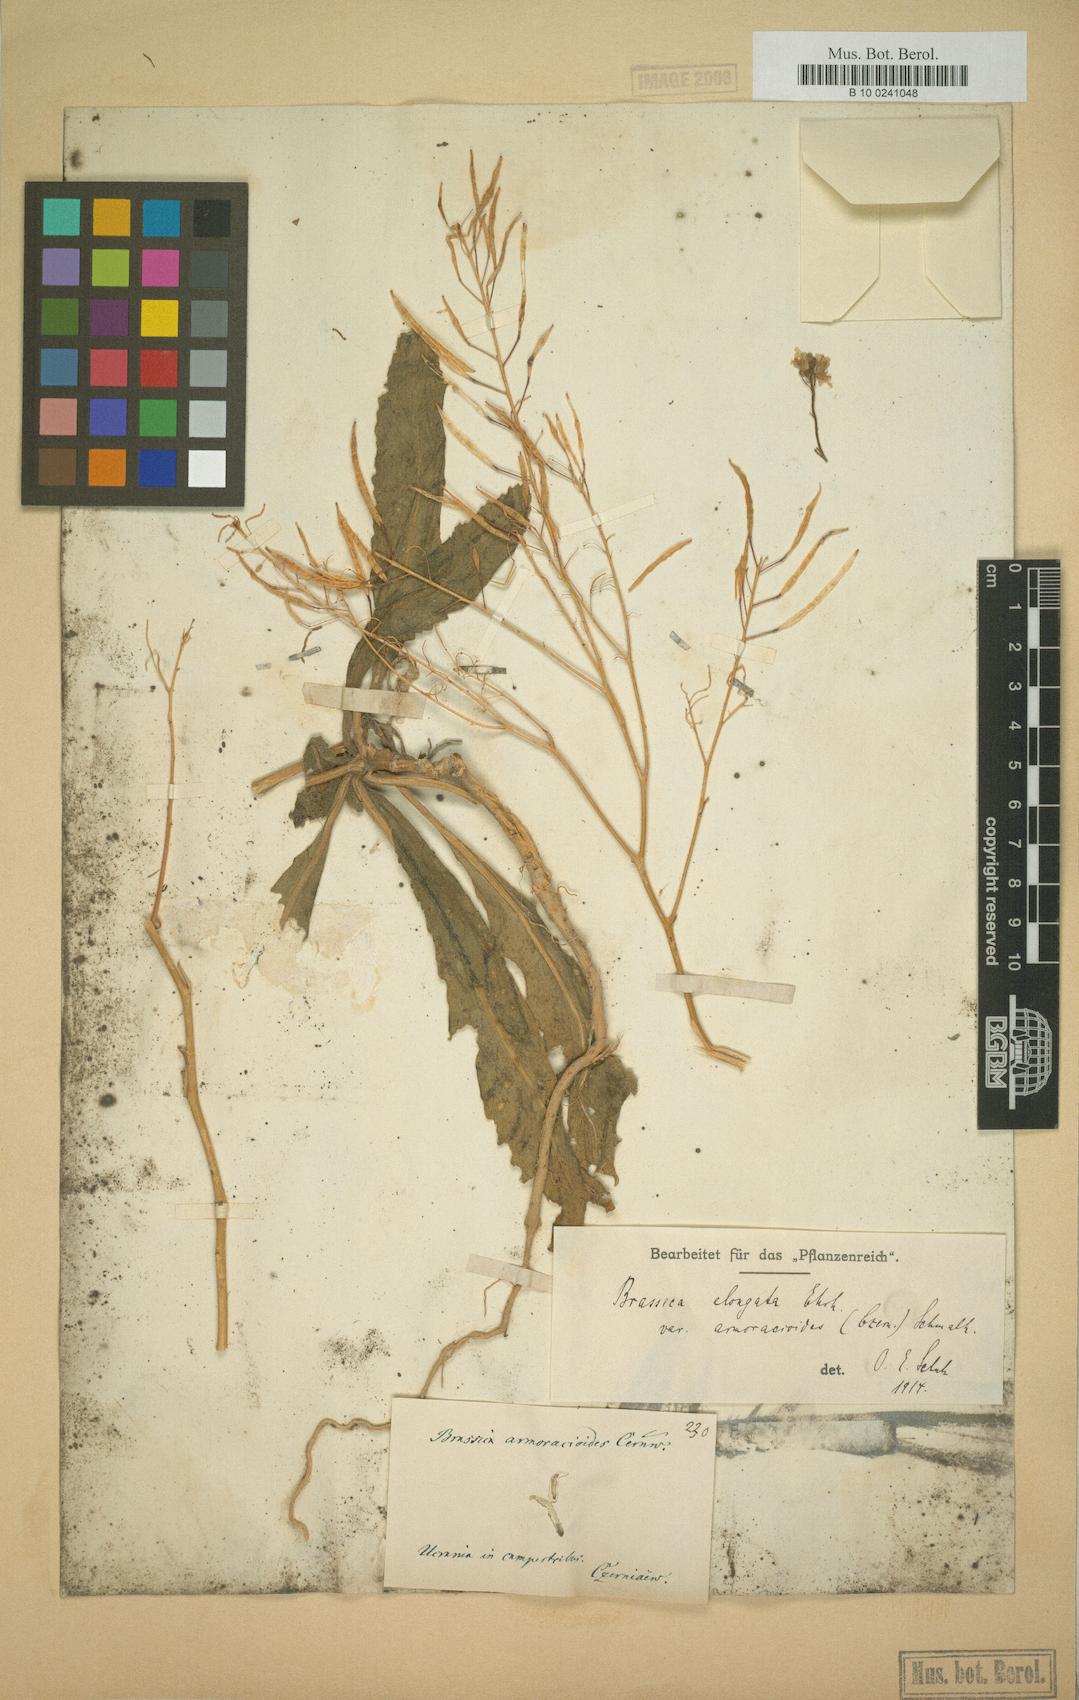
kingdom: Plantae
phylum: Tracheophyta
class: Magnoliopsida
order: Brassicales
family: Brassicaceae
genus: Brassica
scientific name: Brassica elongata
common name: Long-stalked rape
